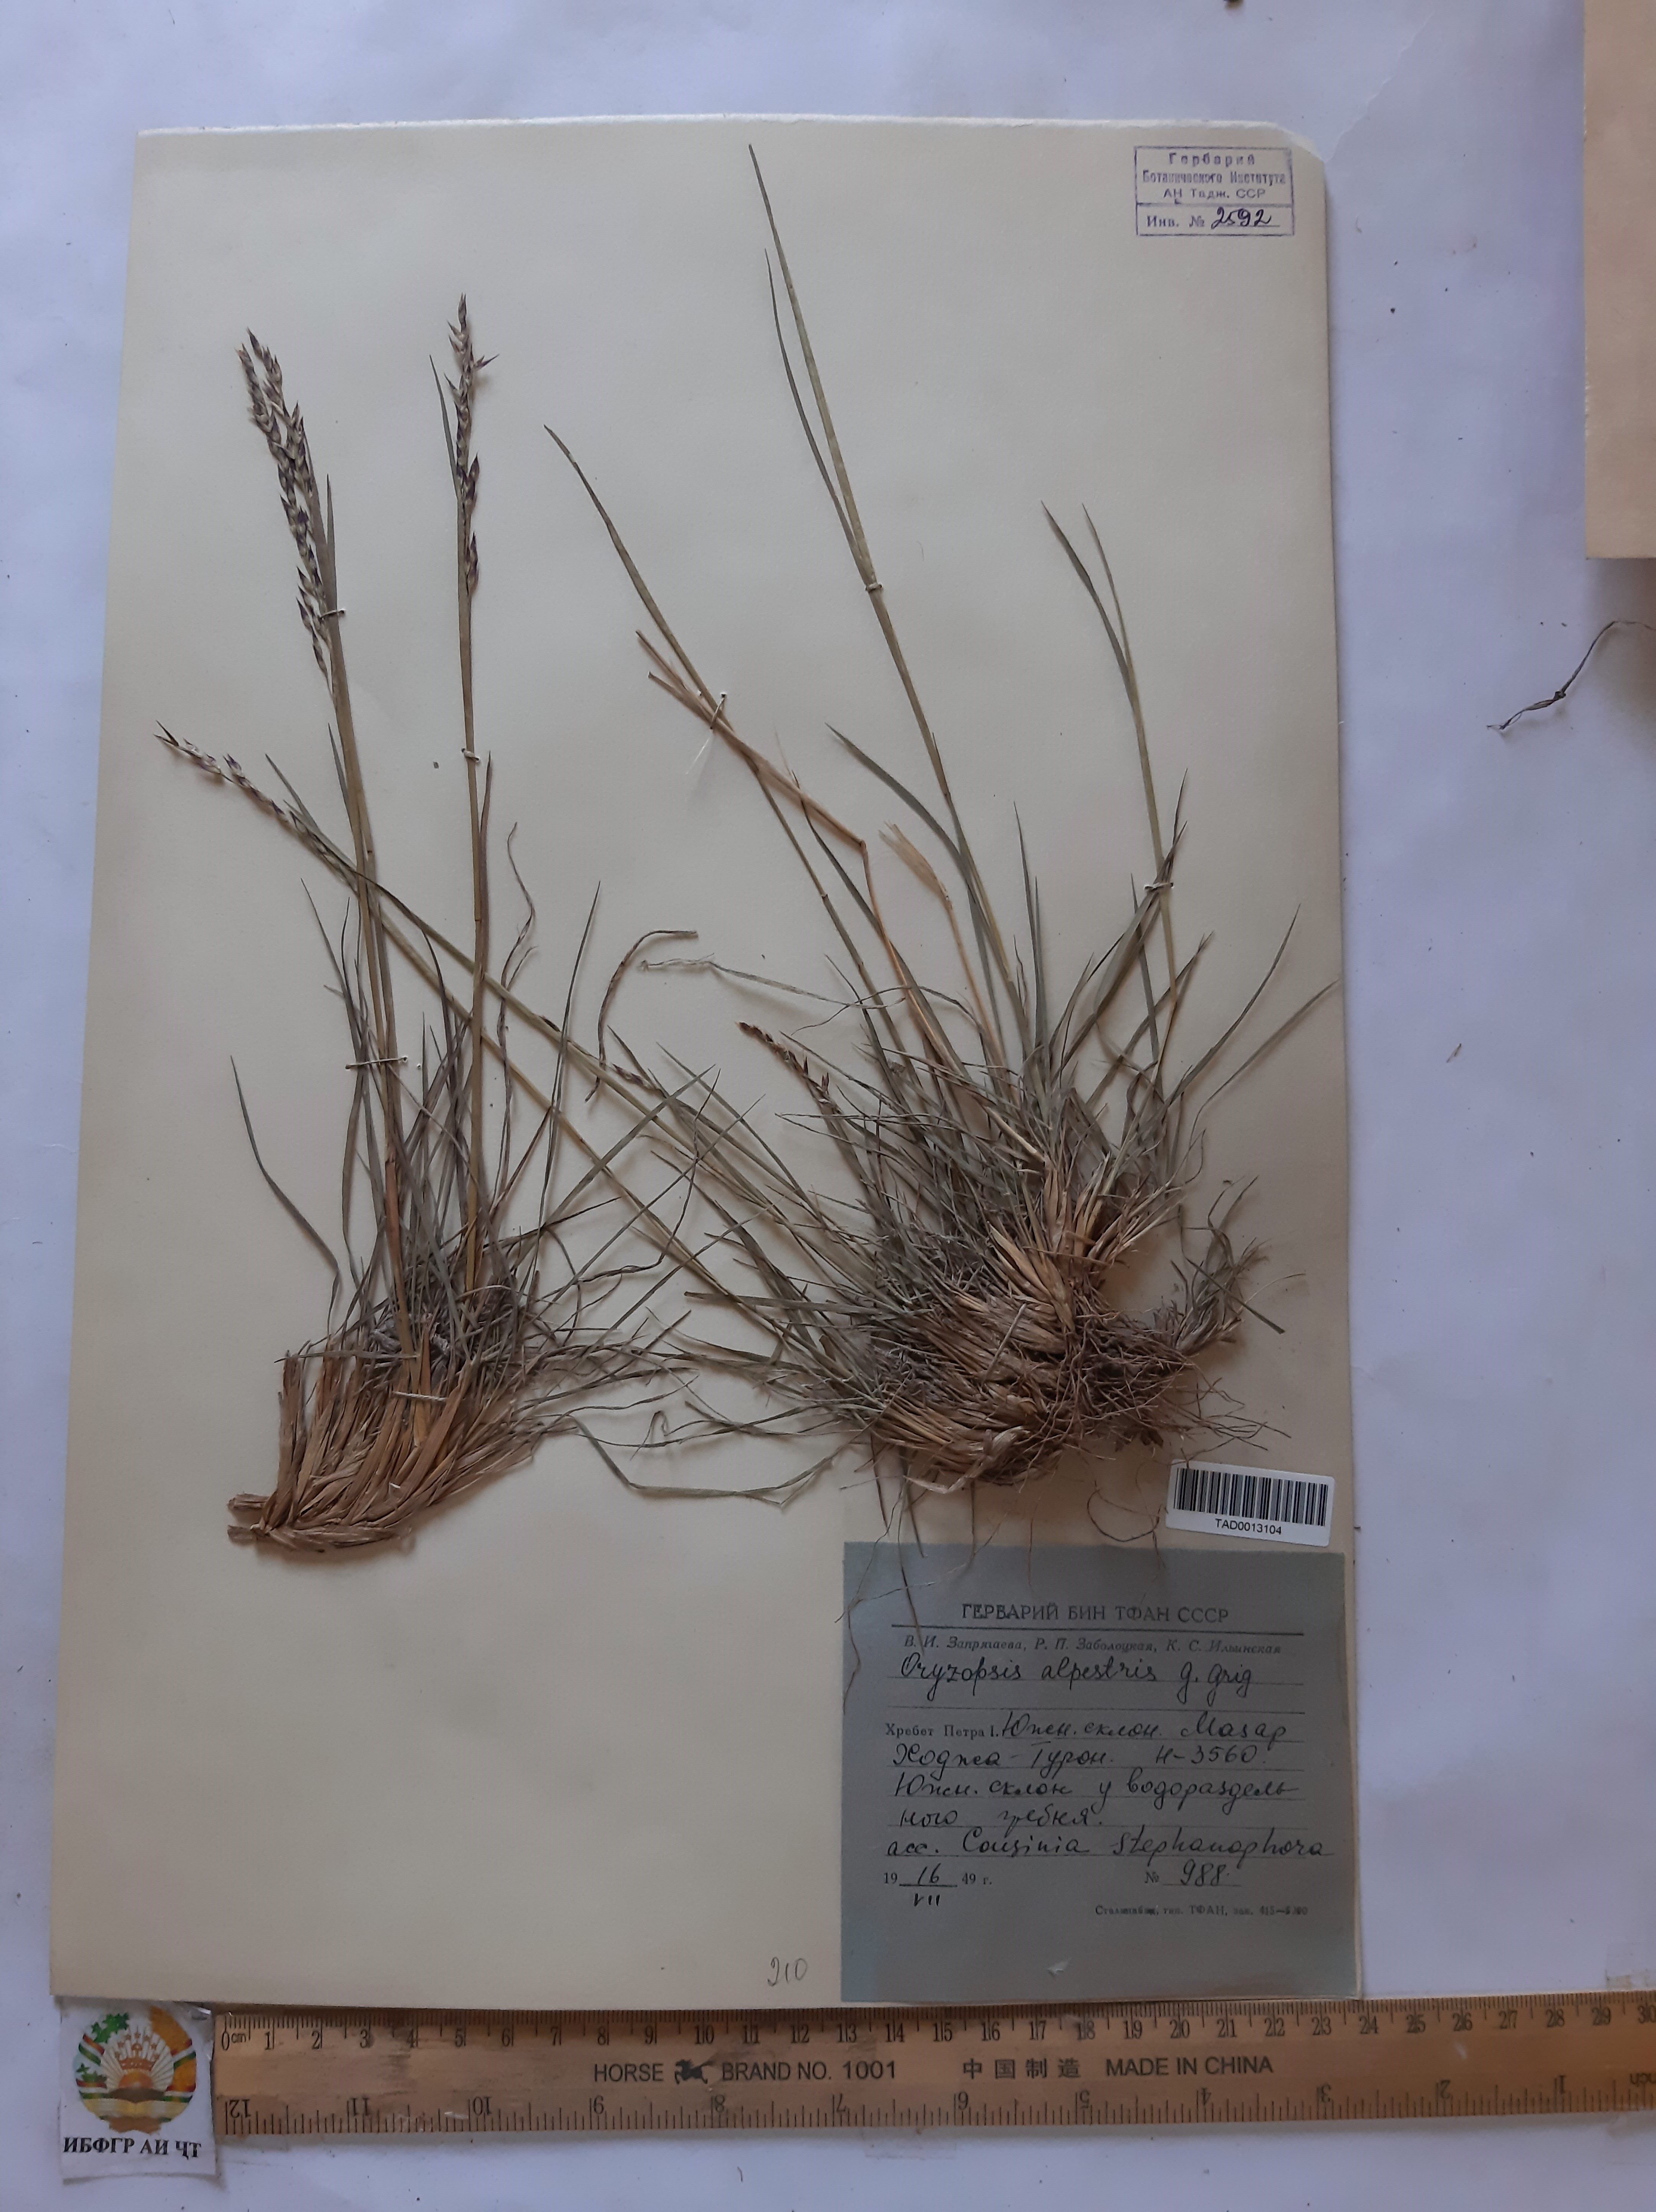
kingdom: Plantae
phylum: Tracheophyta
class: Liliopsida
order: Poales
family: Poaceae
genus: Piptatherum
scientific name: Piptatherum alpestre
